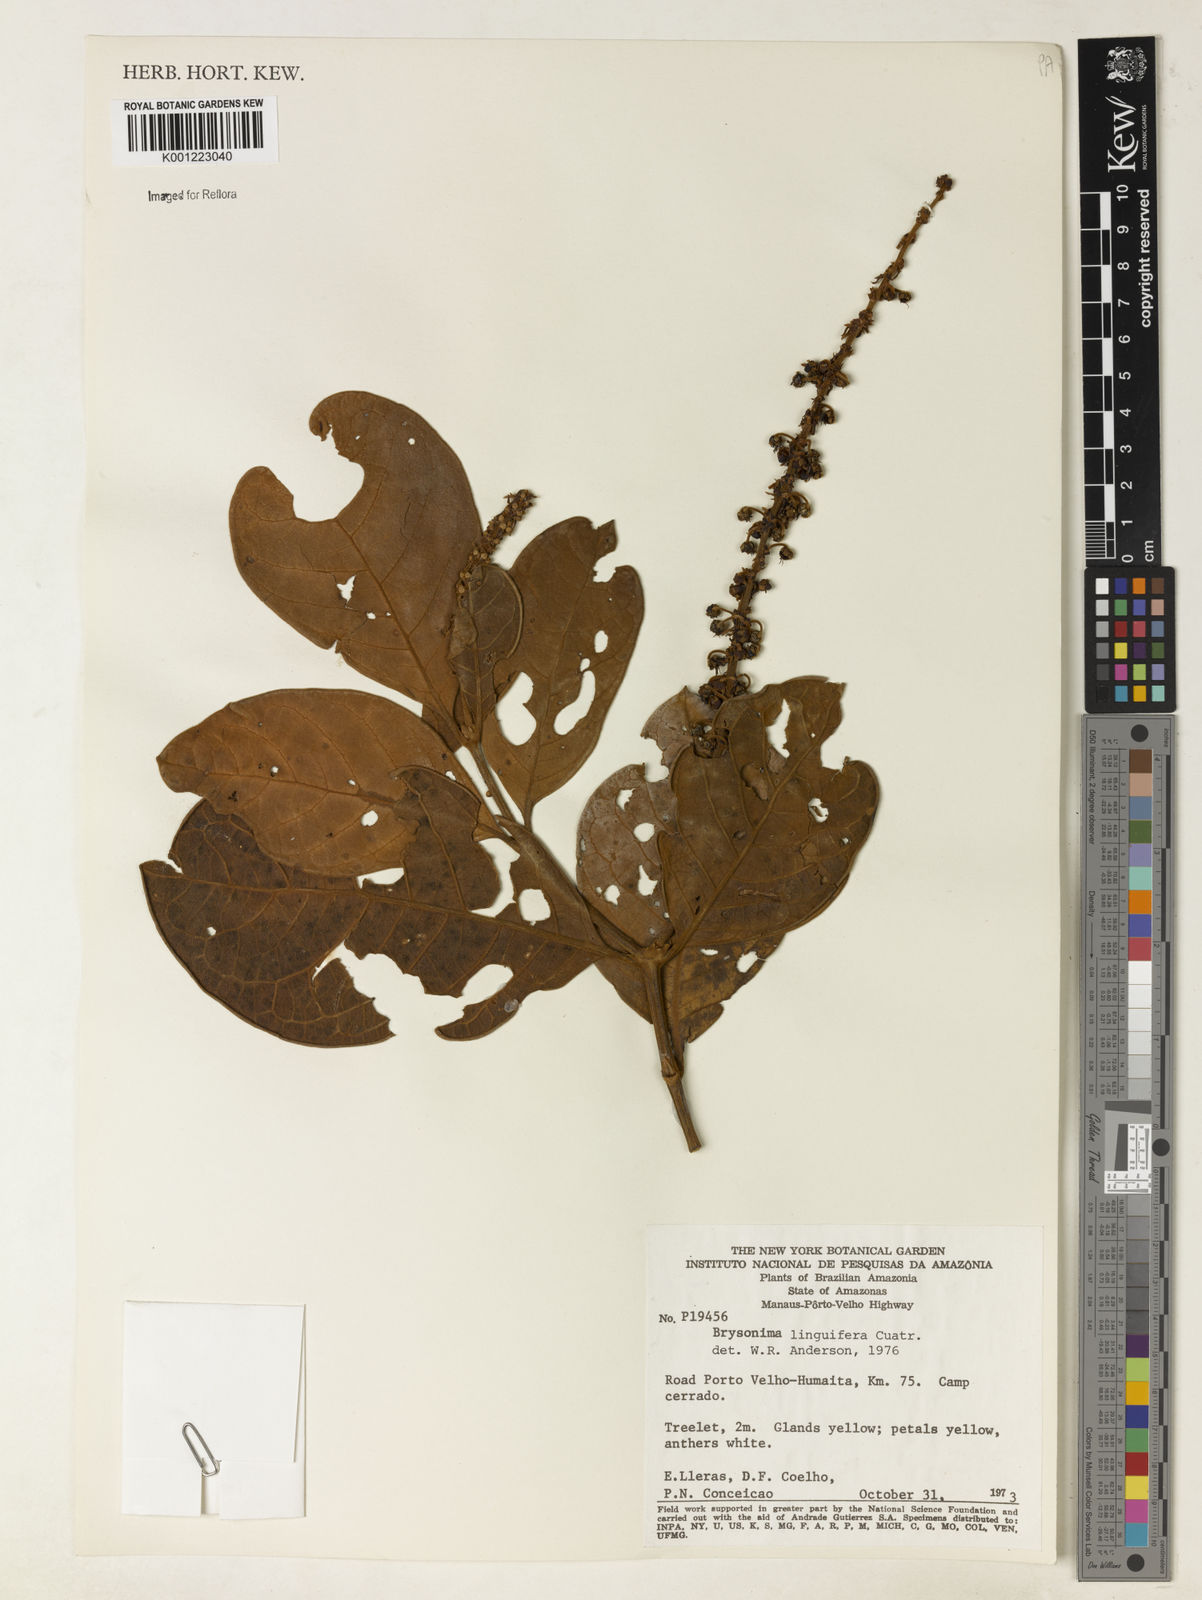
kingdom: Plantae
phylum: Tracheophyta
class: Magnoliopsida
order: Malpighiales
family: Malpighiaceae
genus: Byrsonima
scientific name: Byrsonima linguifera
